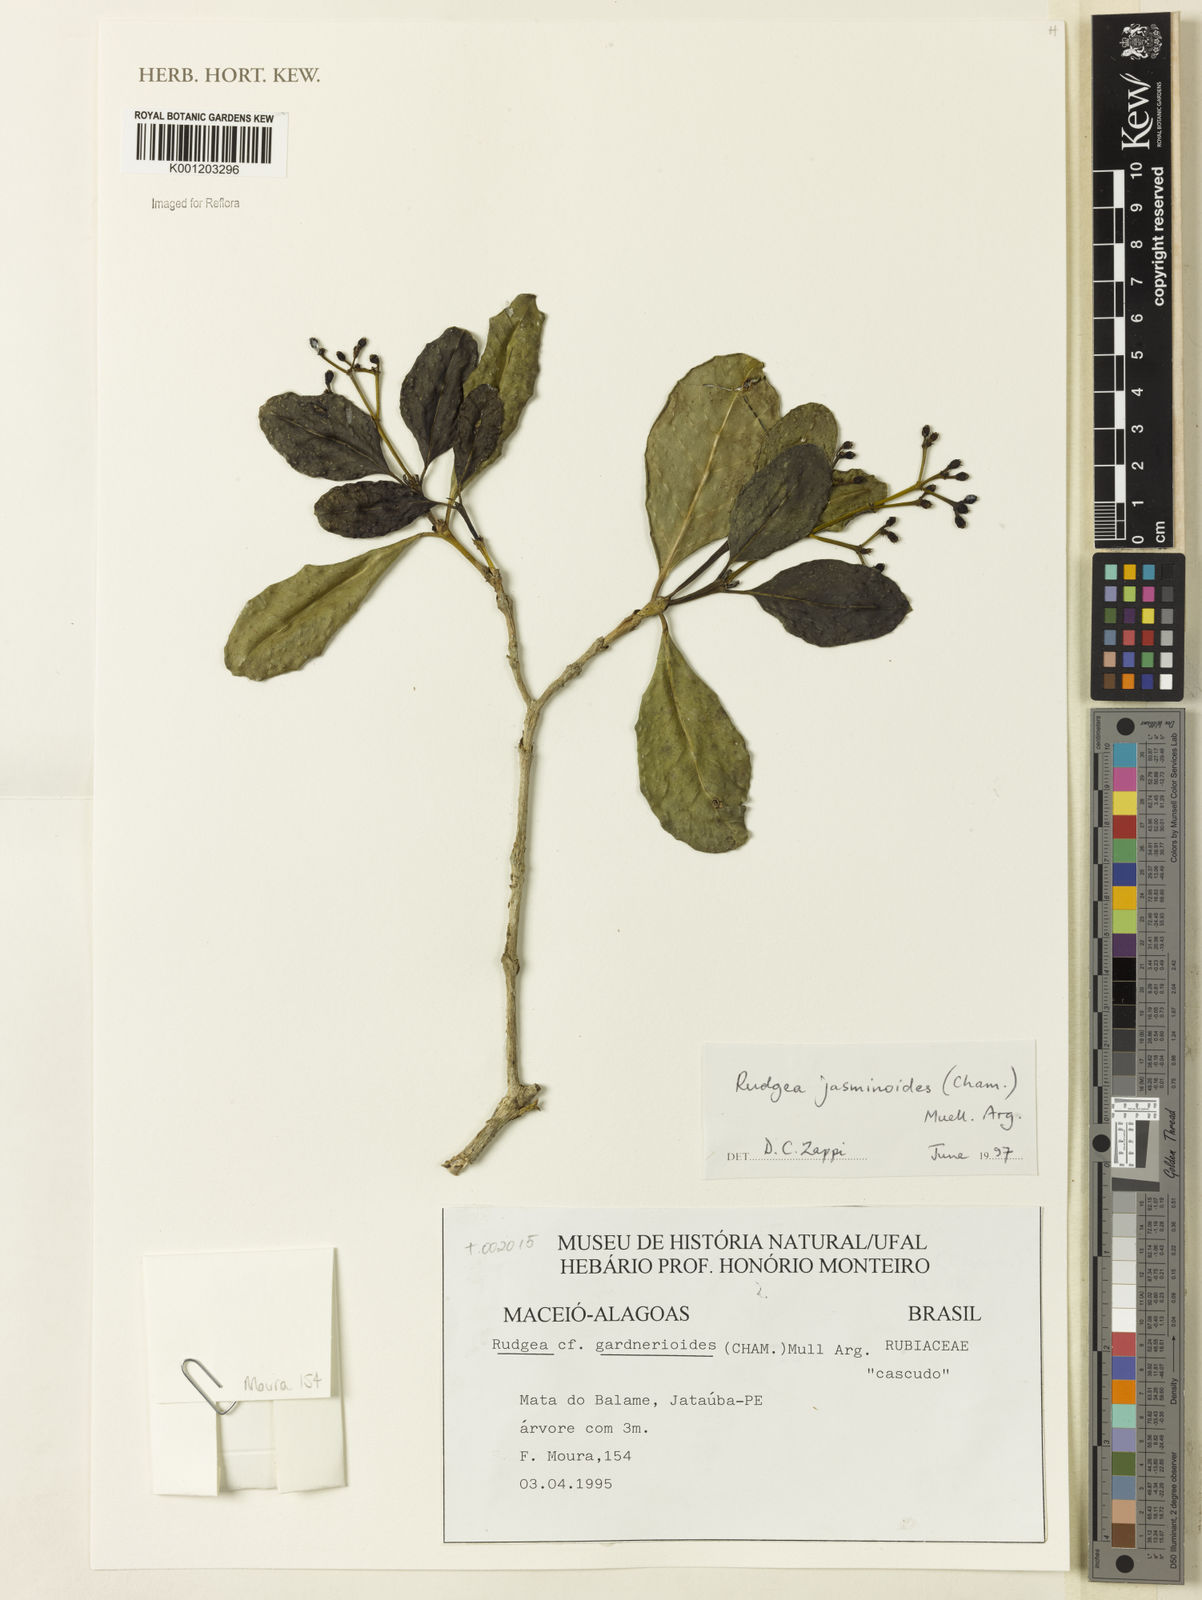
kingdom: Plantae
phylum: Tracheophyta
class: Magnoliopsida
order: Gentianales
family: Rubiaceae
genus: Rudgea
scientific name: Rudgea
